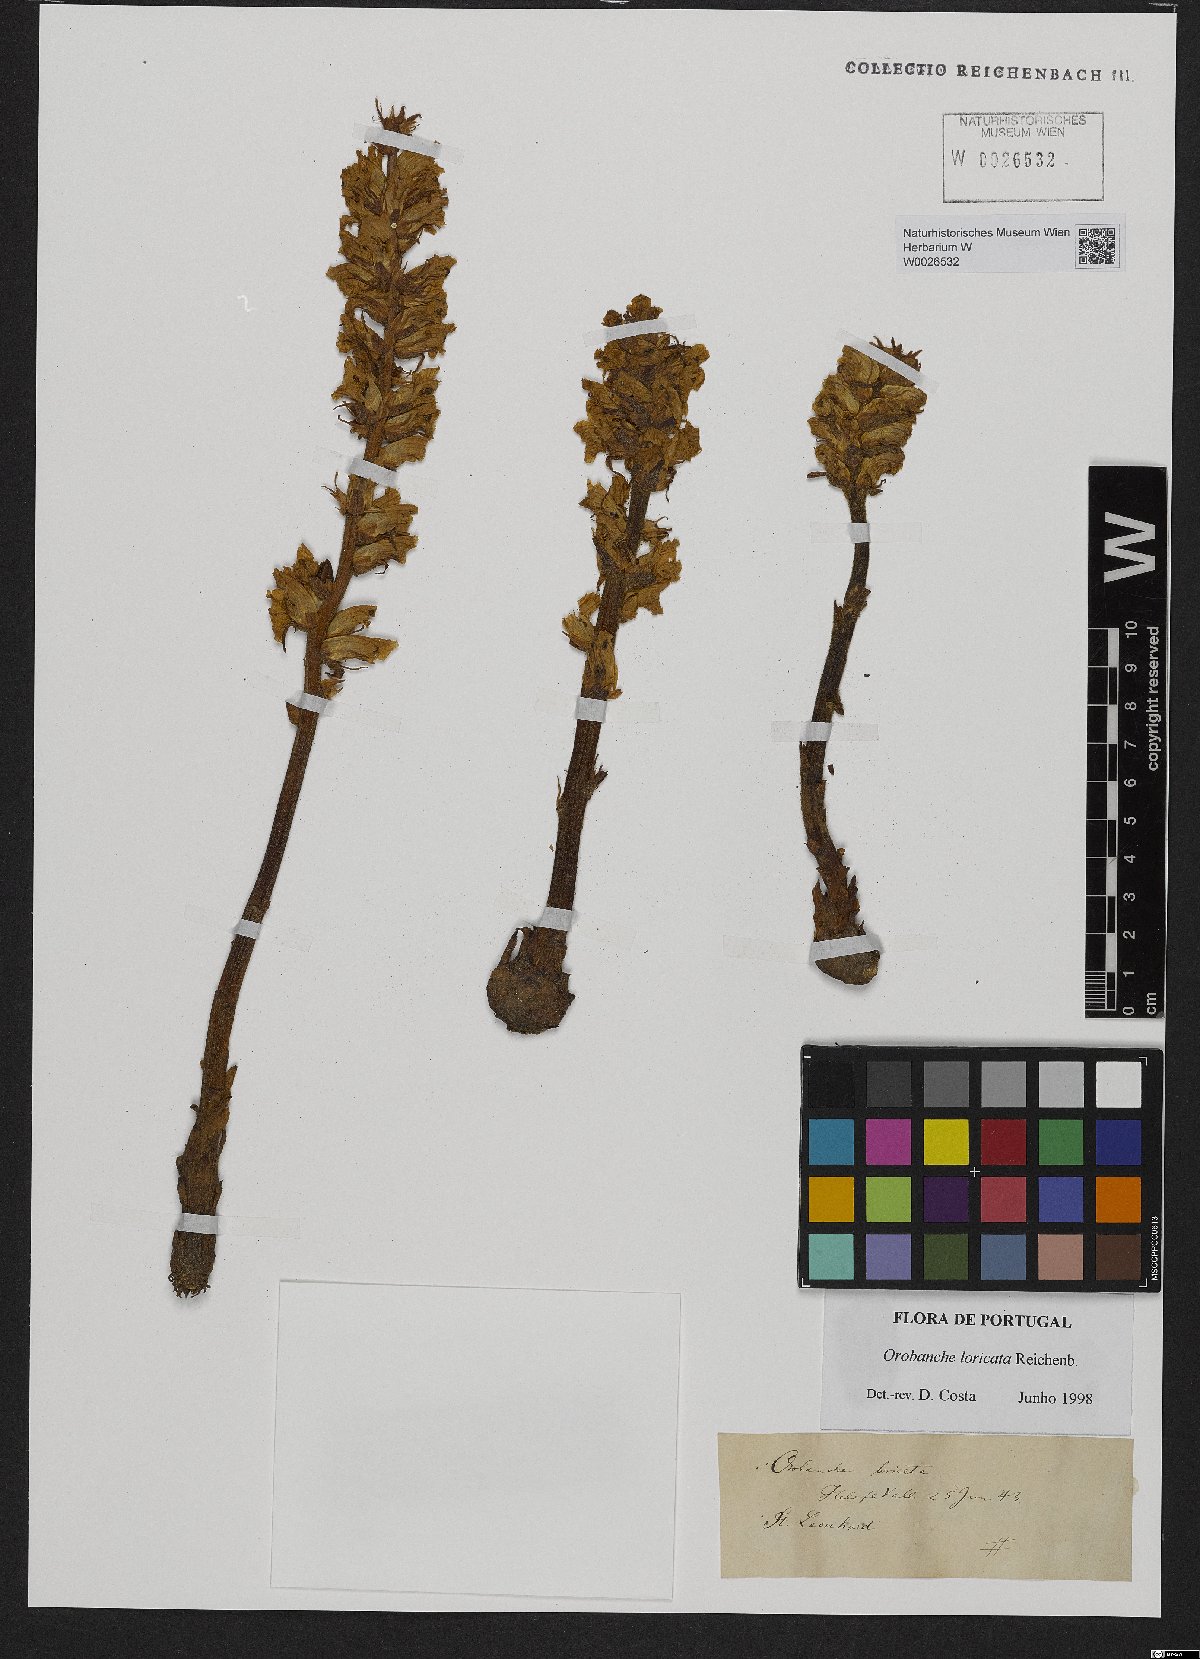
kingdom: Plantae
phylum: Tracheophyta
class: Magnoliopsida
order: Lamiales
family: Orobanchaceae
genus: Orobanche
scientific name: Orobanche artemisiae-campestris
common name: Oxtongue broomrape
